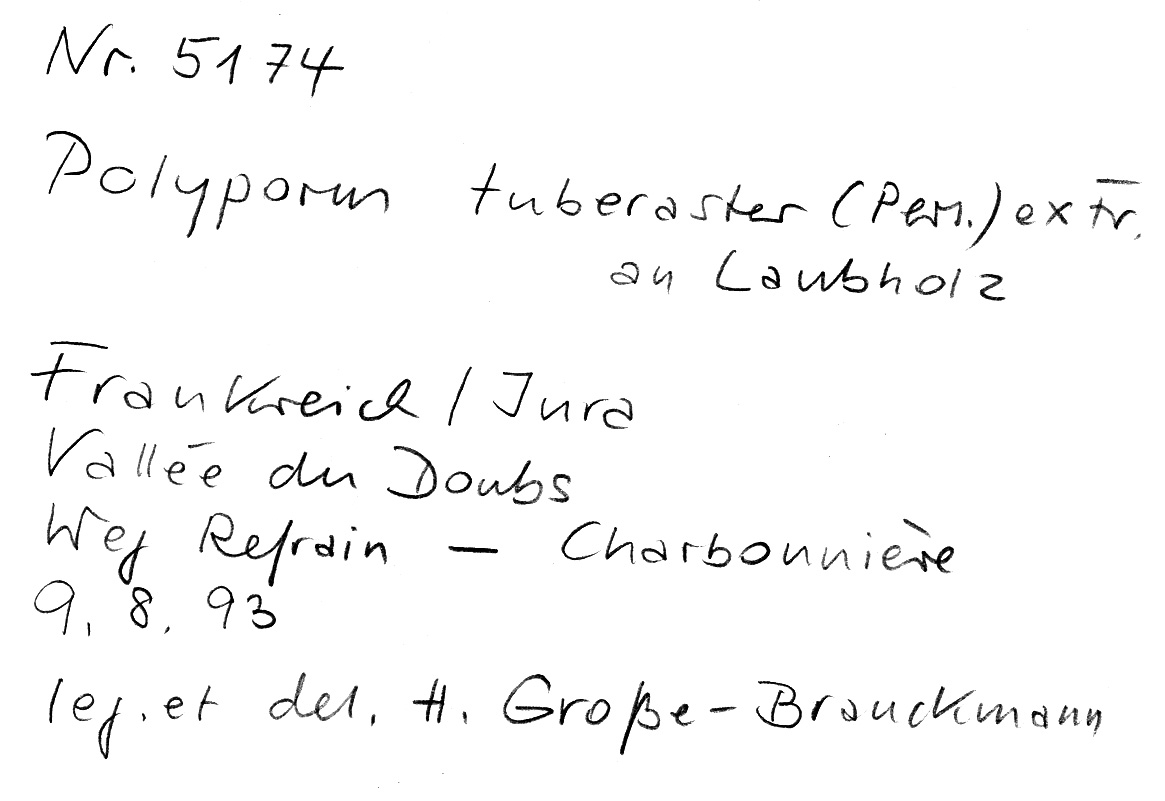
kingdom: Fungi
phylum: Basidiomycota
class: Agaricomycetes
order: Polyporales
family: Polyporaceae
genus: Polyporus
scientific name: Polyporus tuberaster
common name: Tuberous polypore
